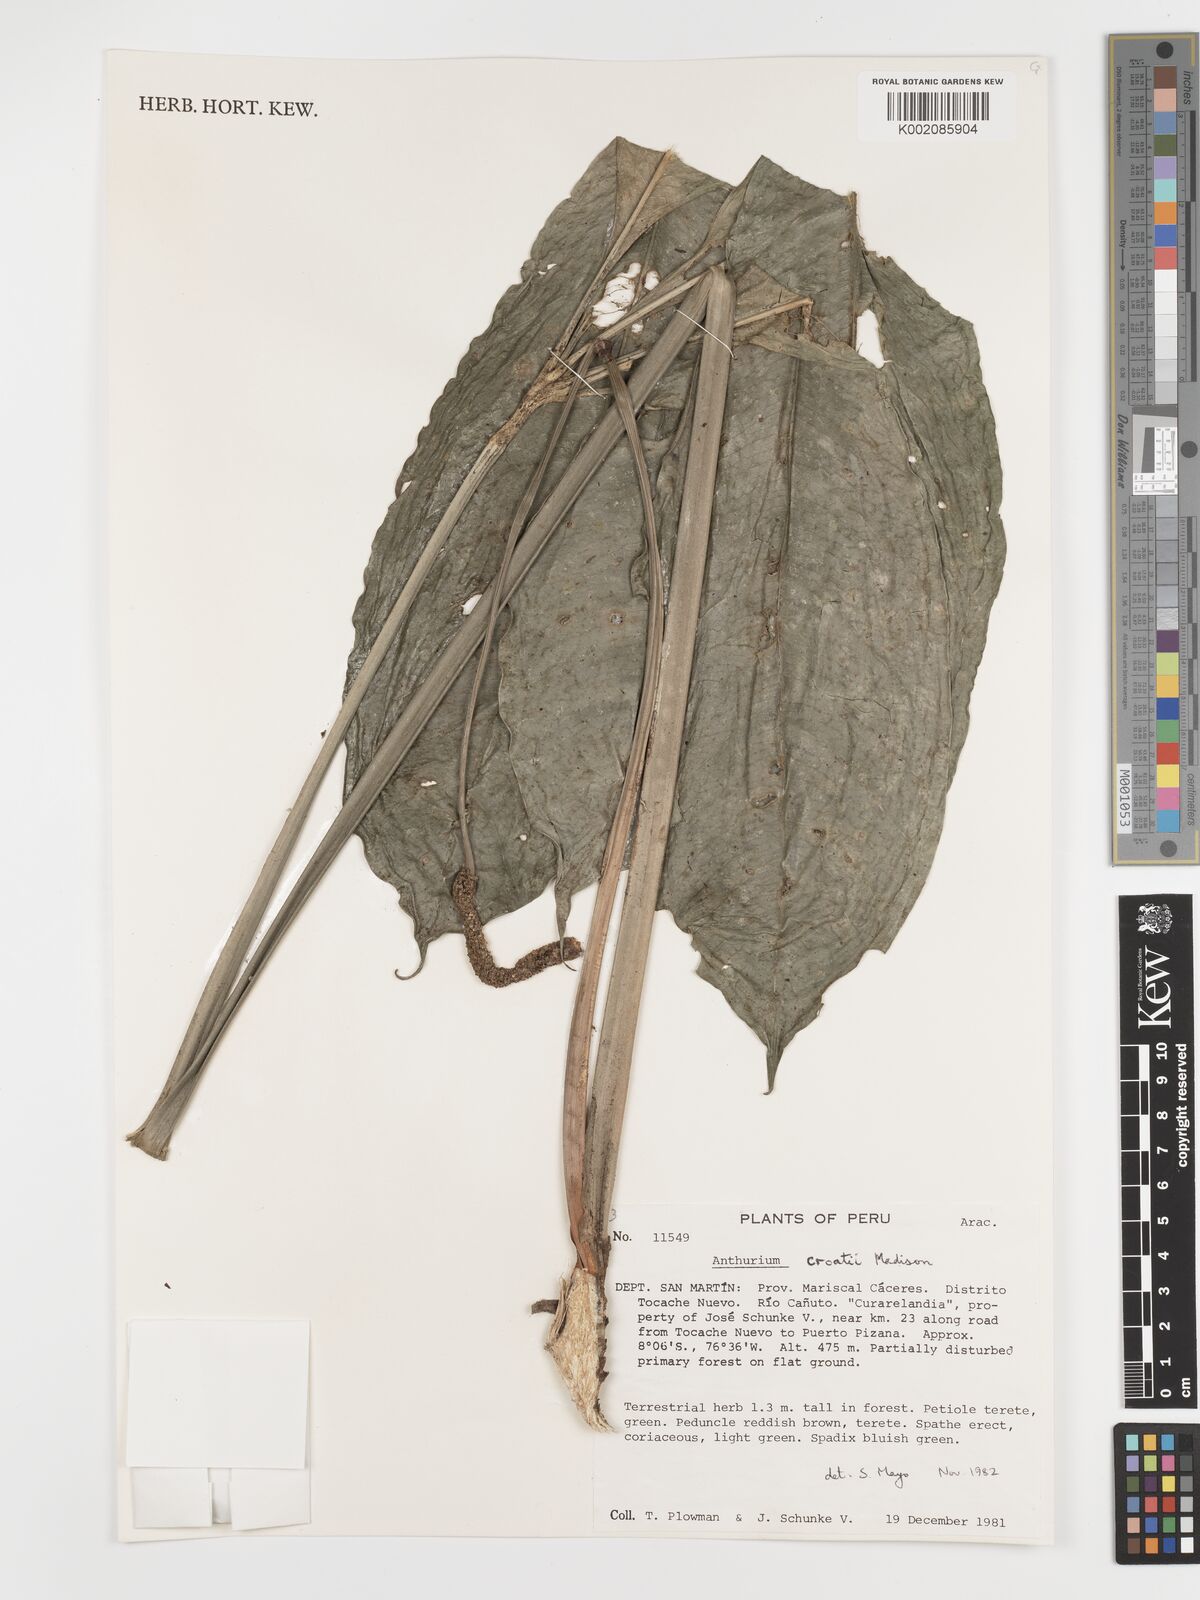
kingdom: Plantae
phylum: Tracheophyta
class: Liliopsida
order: Alismatales
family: Araceae
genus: Anthurium
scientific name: Anthurium croatii
